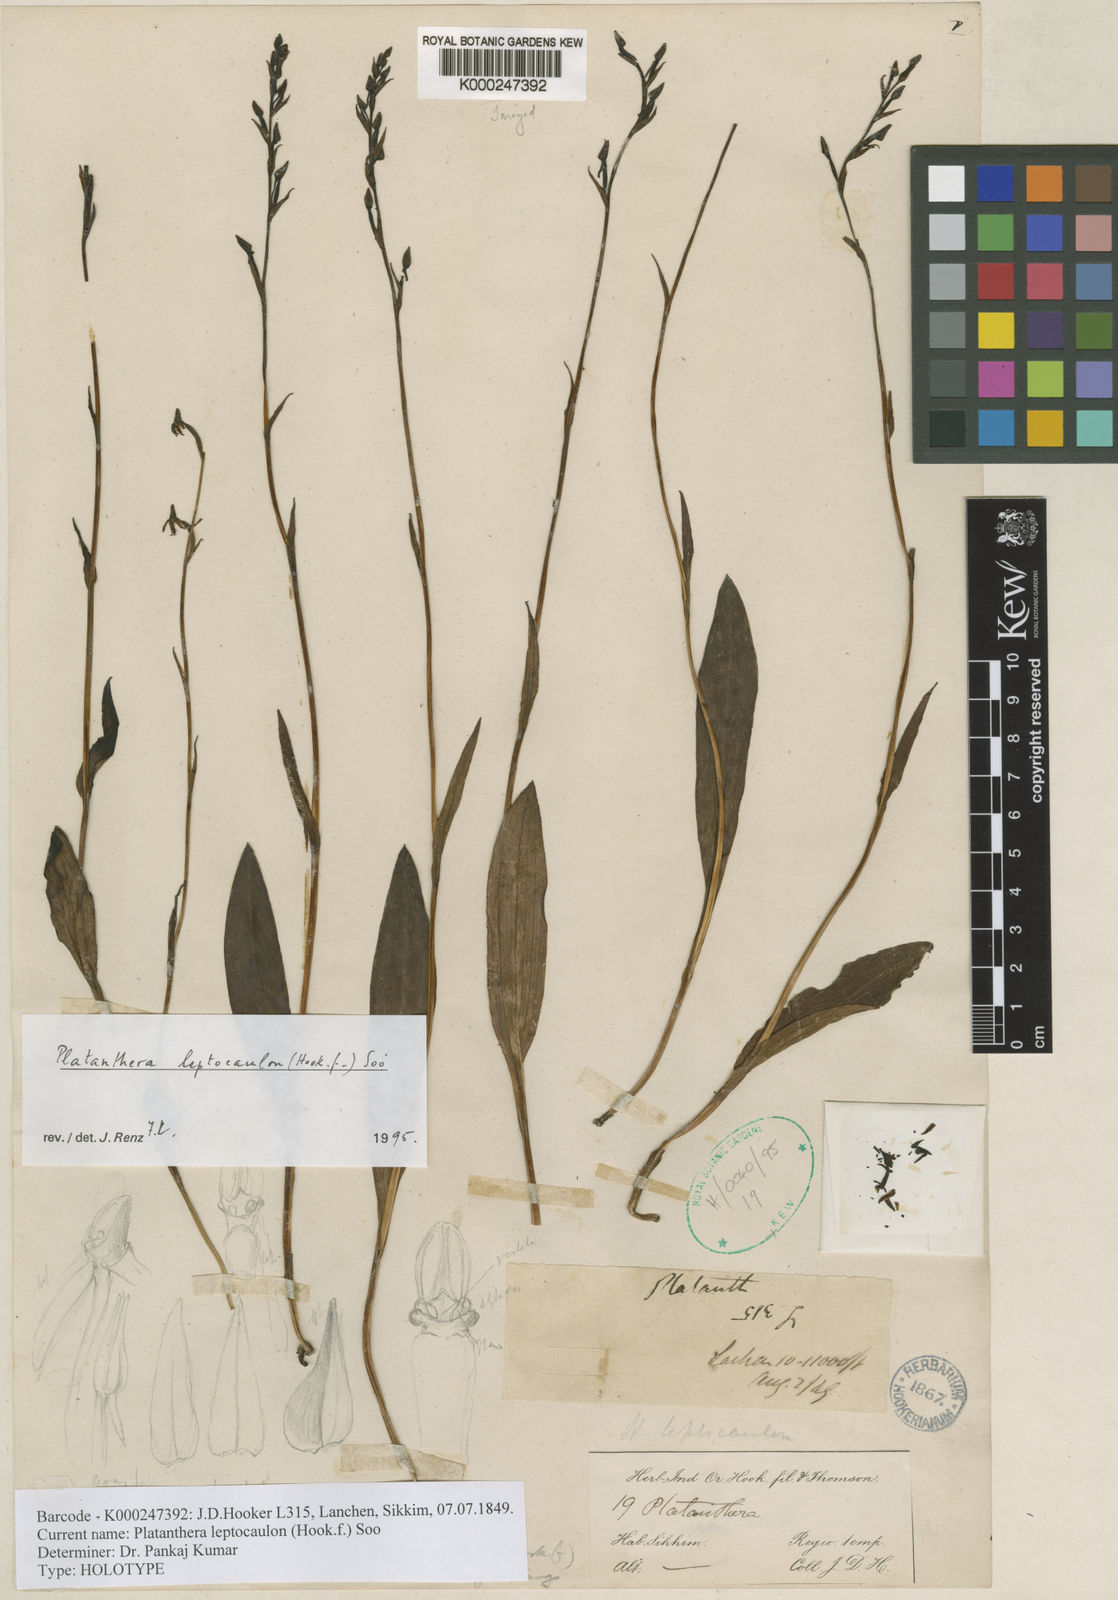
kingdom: Plantae
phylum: Tracheophyta
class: Liliopsida
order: Asparagales
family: Orchidaceae
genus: Platanthera
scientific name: Platanthera
